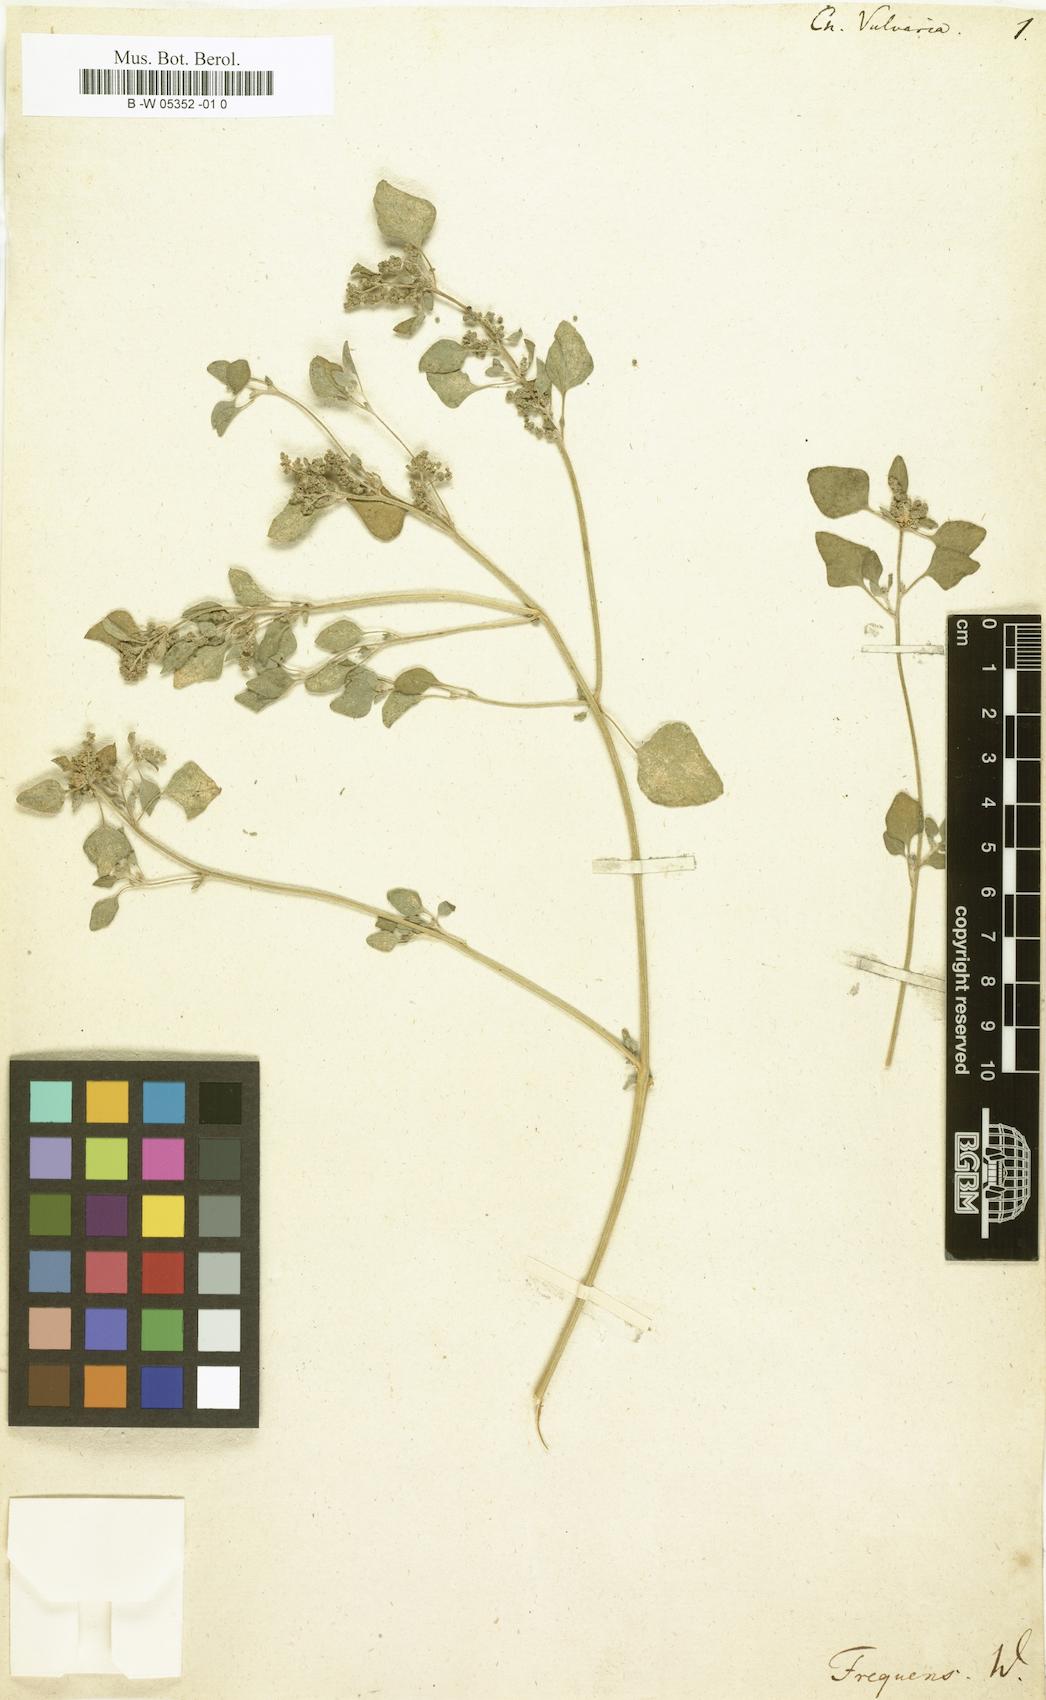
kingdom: Plantae
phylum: Tracheophyta
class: Magnoliopsida
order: Caryophyllales
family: Amaranthaceae
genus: Chenopodium
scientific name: Chenopodium vulvaria
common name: Stinking goosefoot
